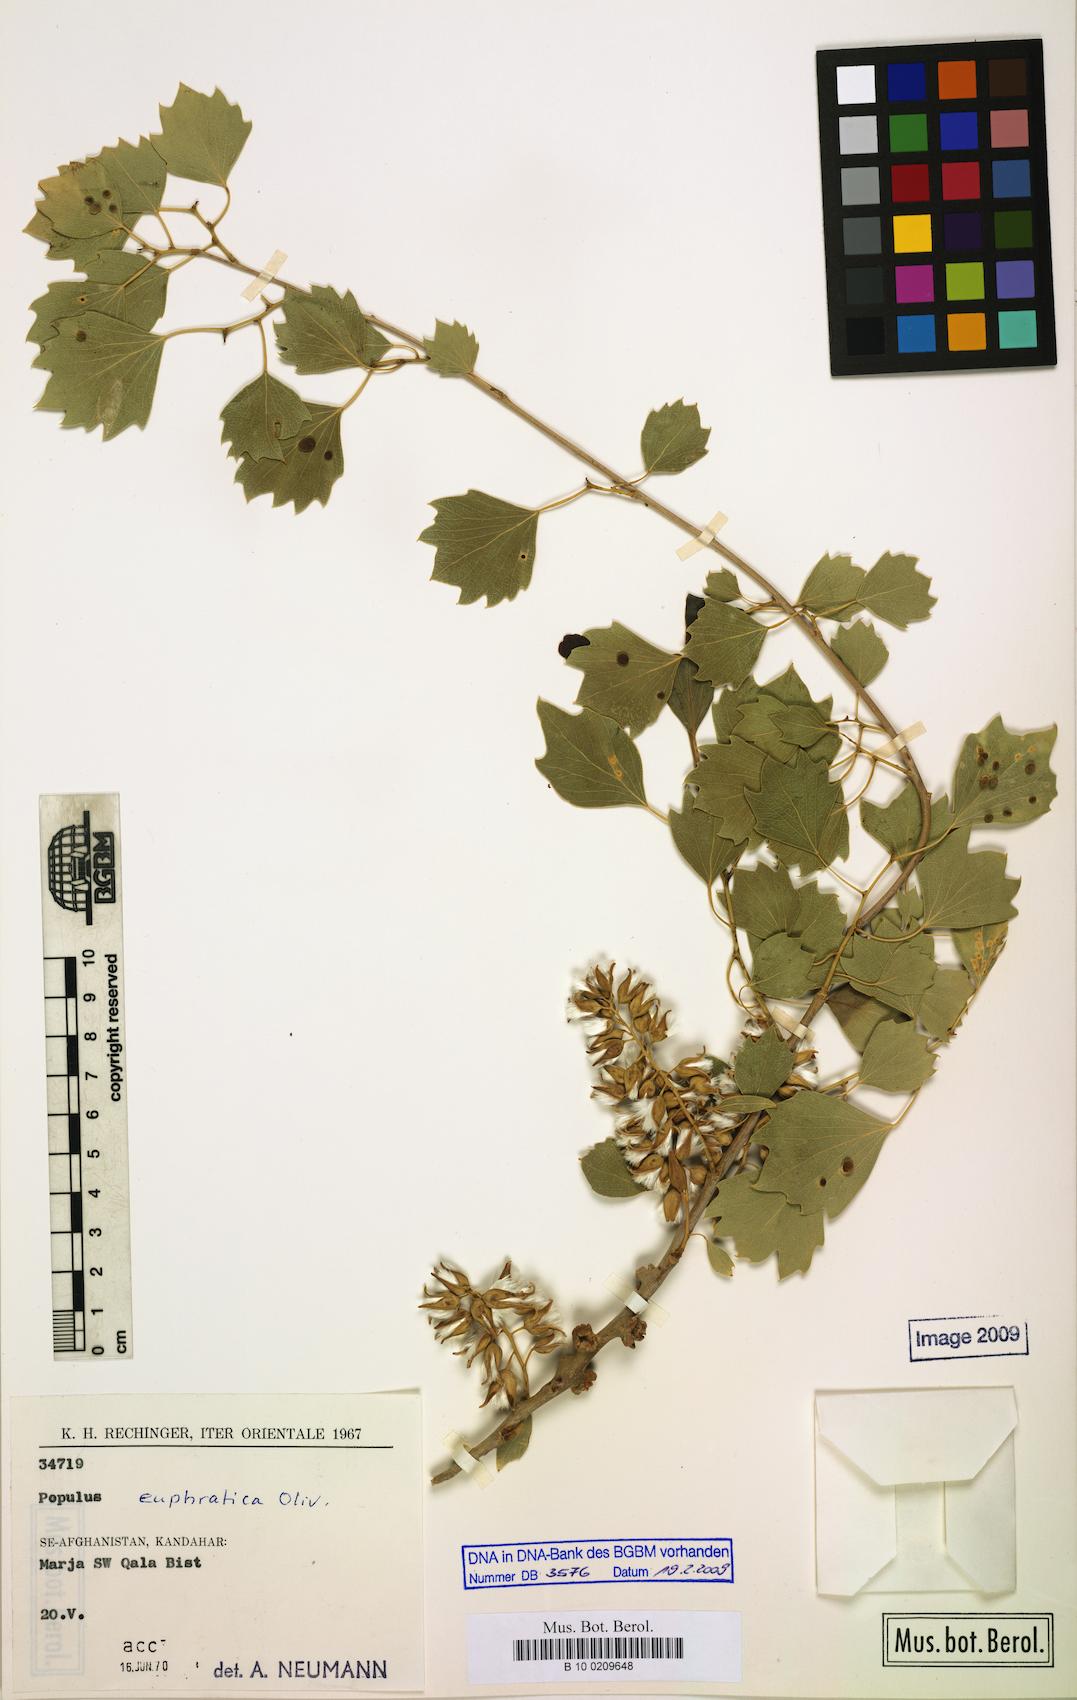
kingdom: Plantae
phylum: Tracheophyta
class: Magnoliopsida
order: Malpighiales
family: Salicaceae
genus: Populus
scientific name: Populus euphratica
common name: Euphrates poplar
